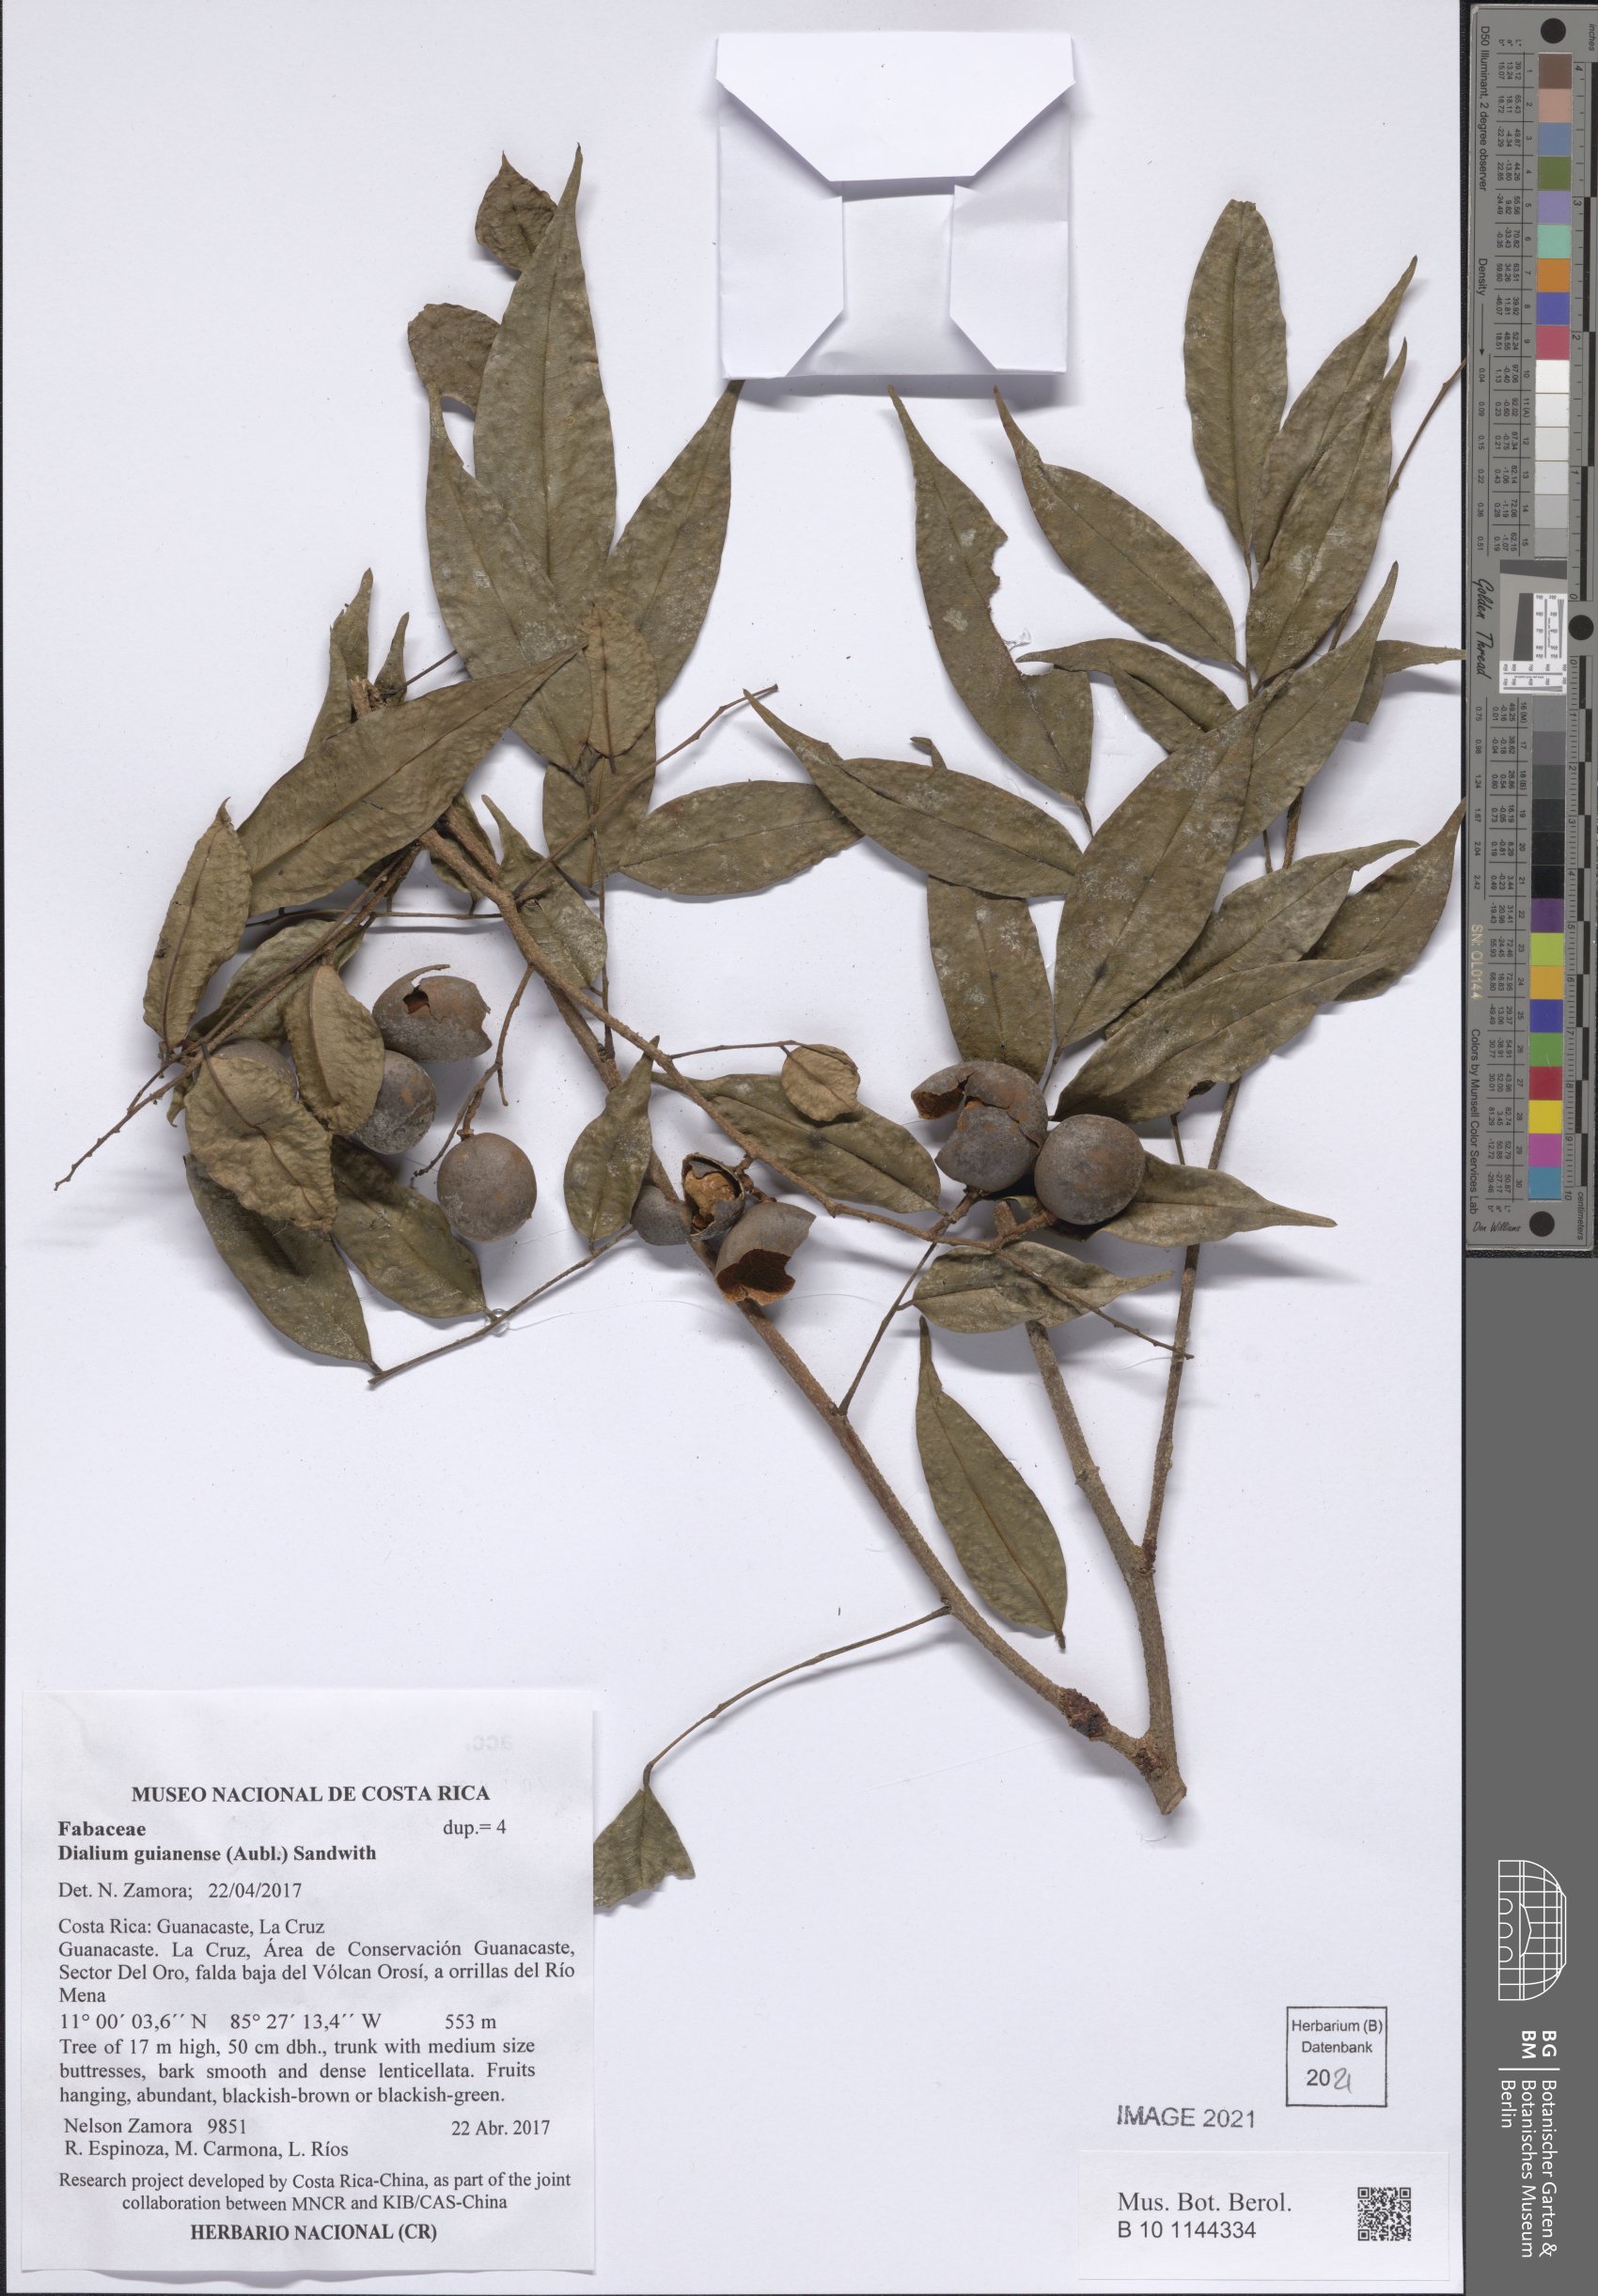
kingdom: Plantae
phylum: Tracheophyta
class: Magnoliopsida
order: Fabales
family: Fabaceae
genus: Dialium
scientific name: Dialium guianense
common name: Ironwood
